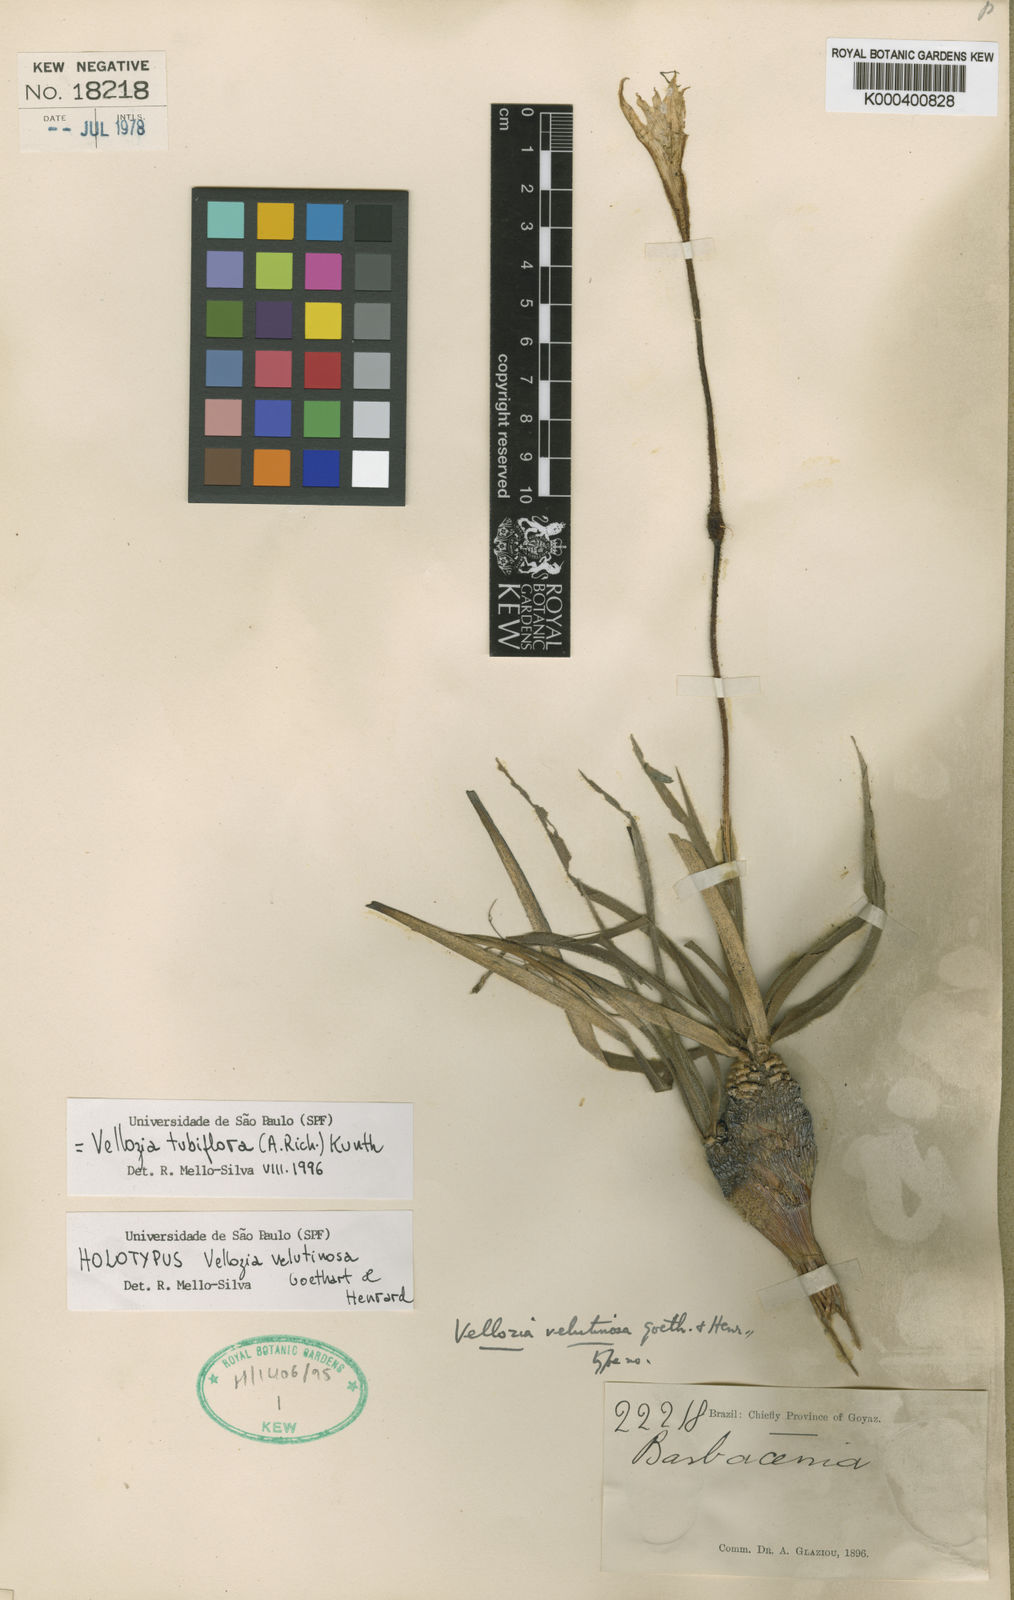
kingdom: Plantae
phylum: Tracheophyta
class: Liliopsida
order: Pandanales
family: Velloziaceae
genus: Vellozia
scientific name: Vellozia tubiflora
